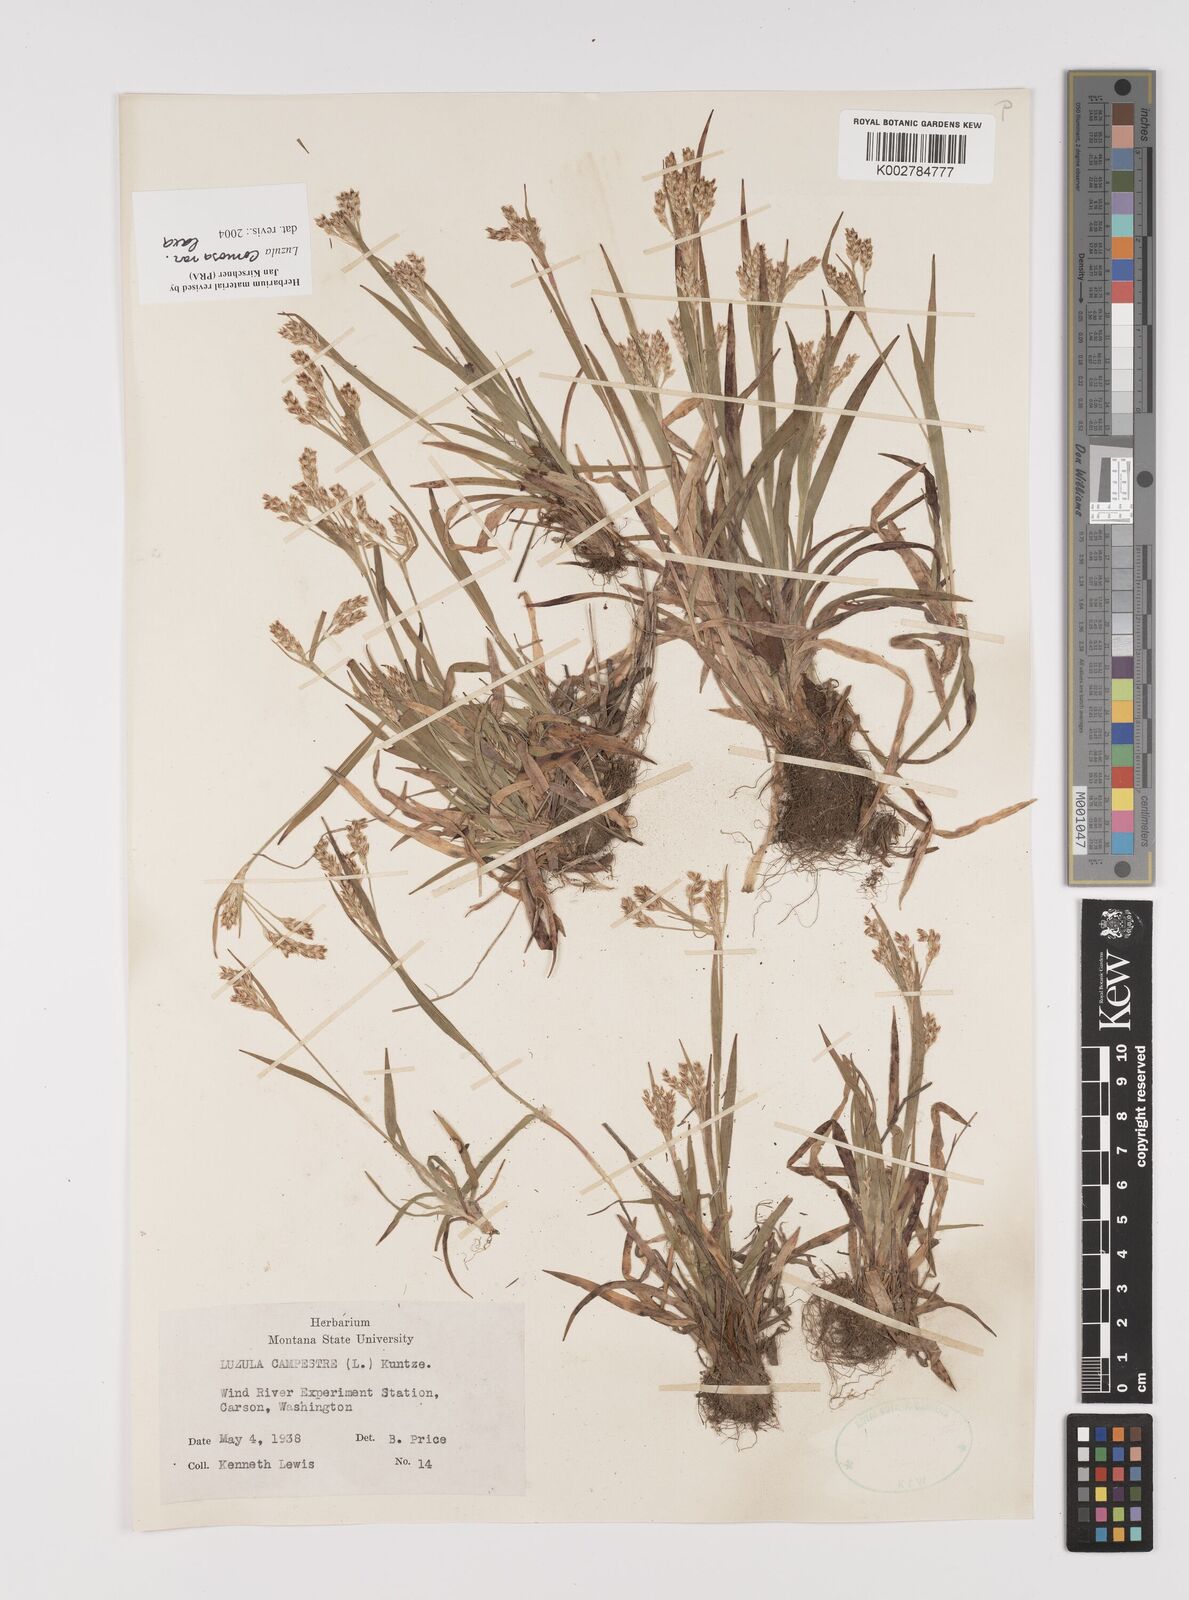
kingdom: Plantae
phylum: Tracheophyta
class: Liliopsida
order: Poales
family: Juncaceae
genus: Luzula
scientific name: Luzula comosa
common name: Pacific woodrush
